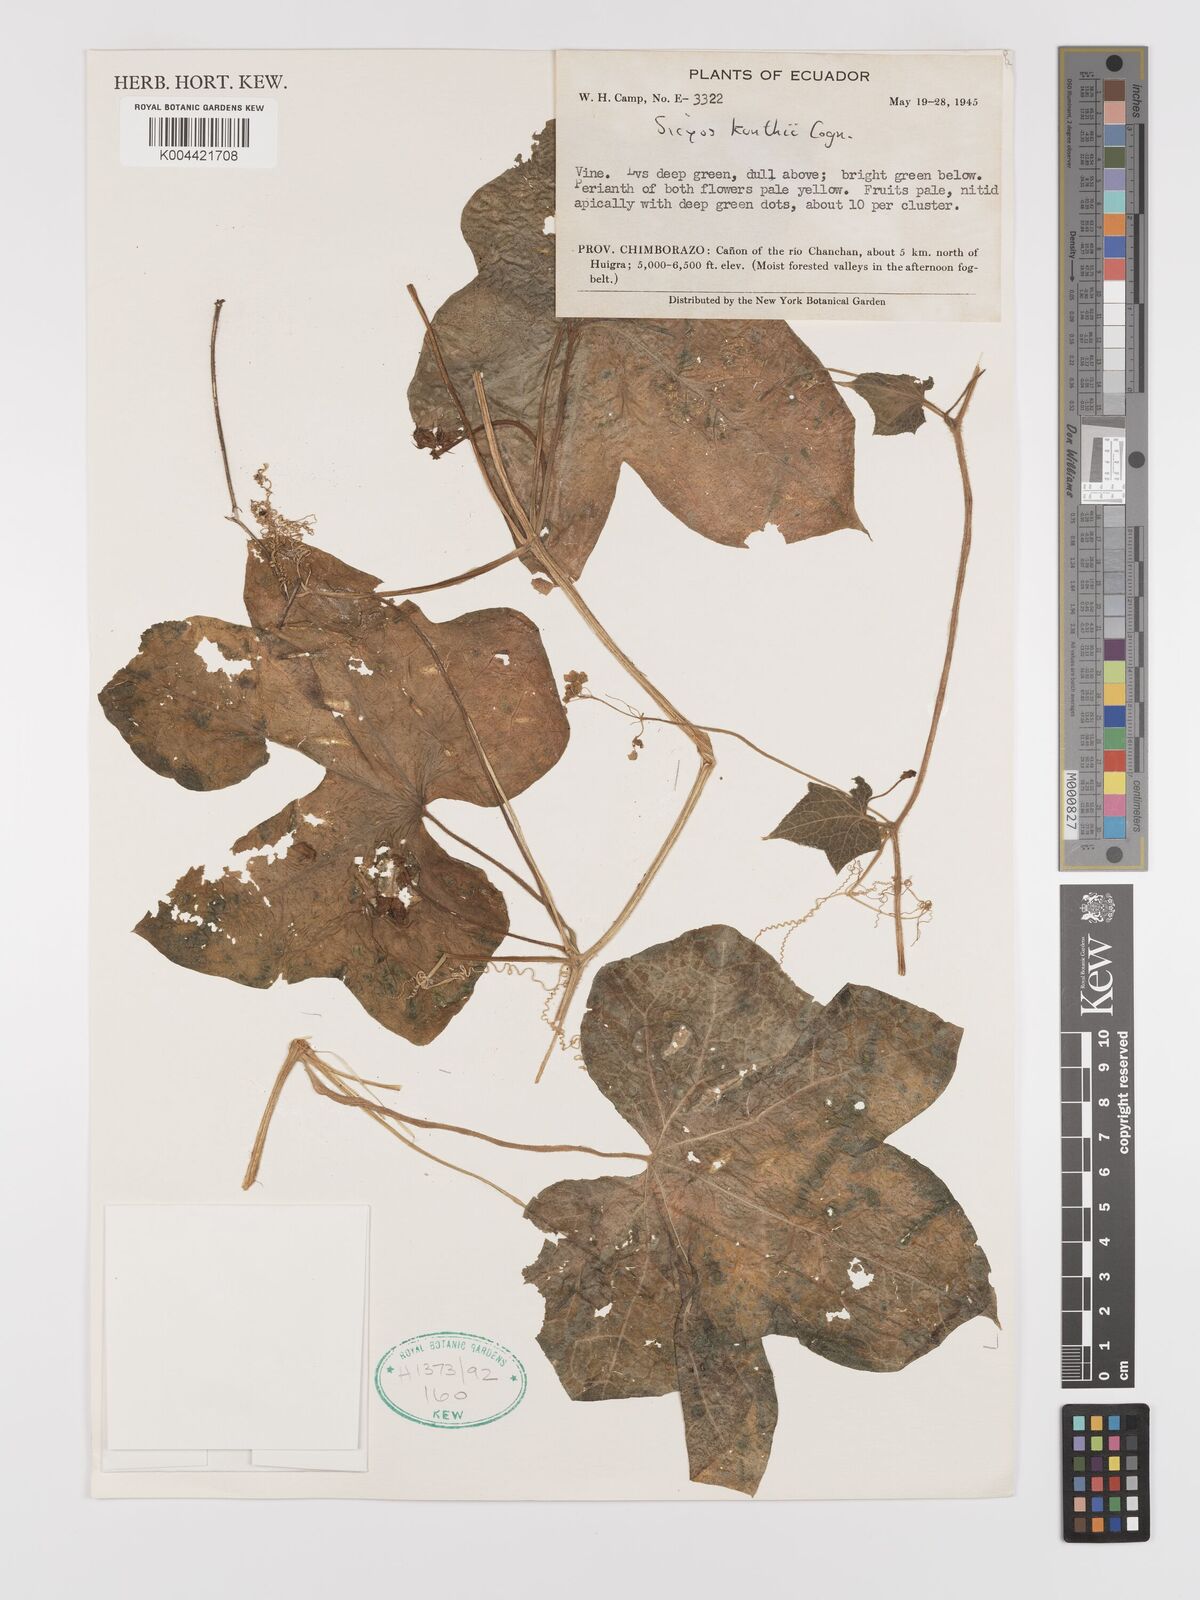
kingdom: Plantae
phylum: Tracheophyta
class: Magnoliopsida
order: Cucurbitales
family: Cucurbitaceae
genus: Sicyos
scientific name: Sicyos kunthii
